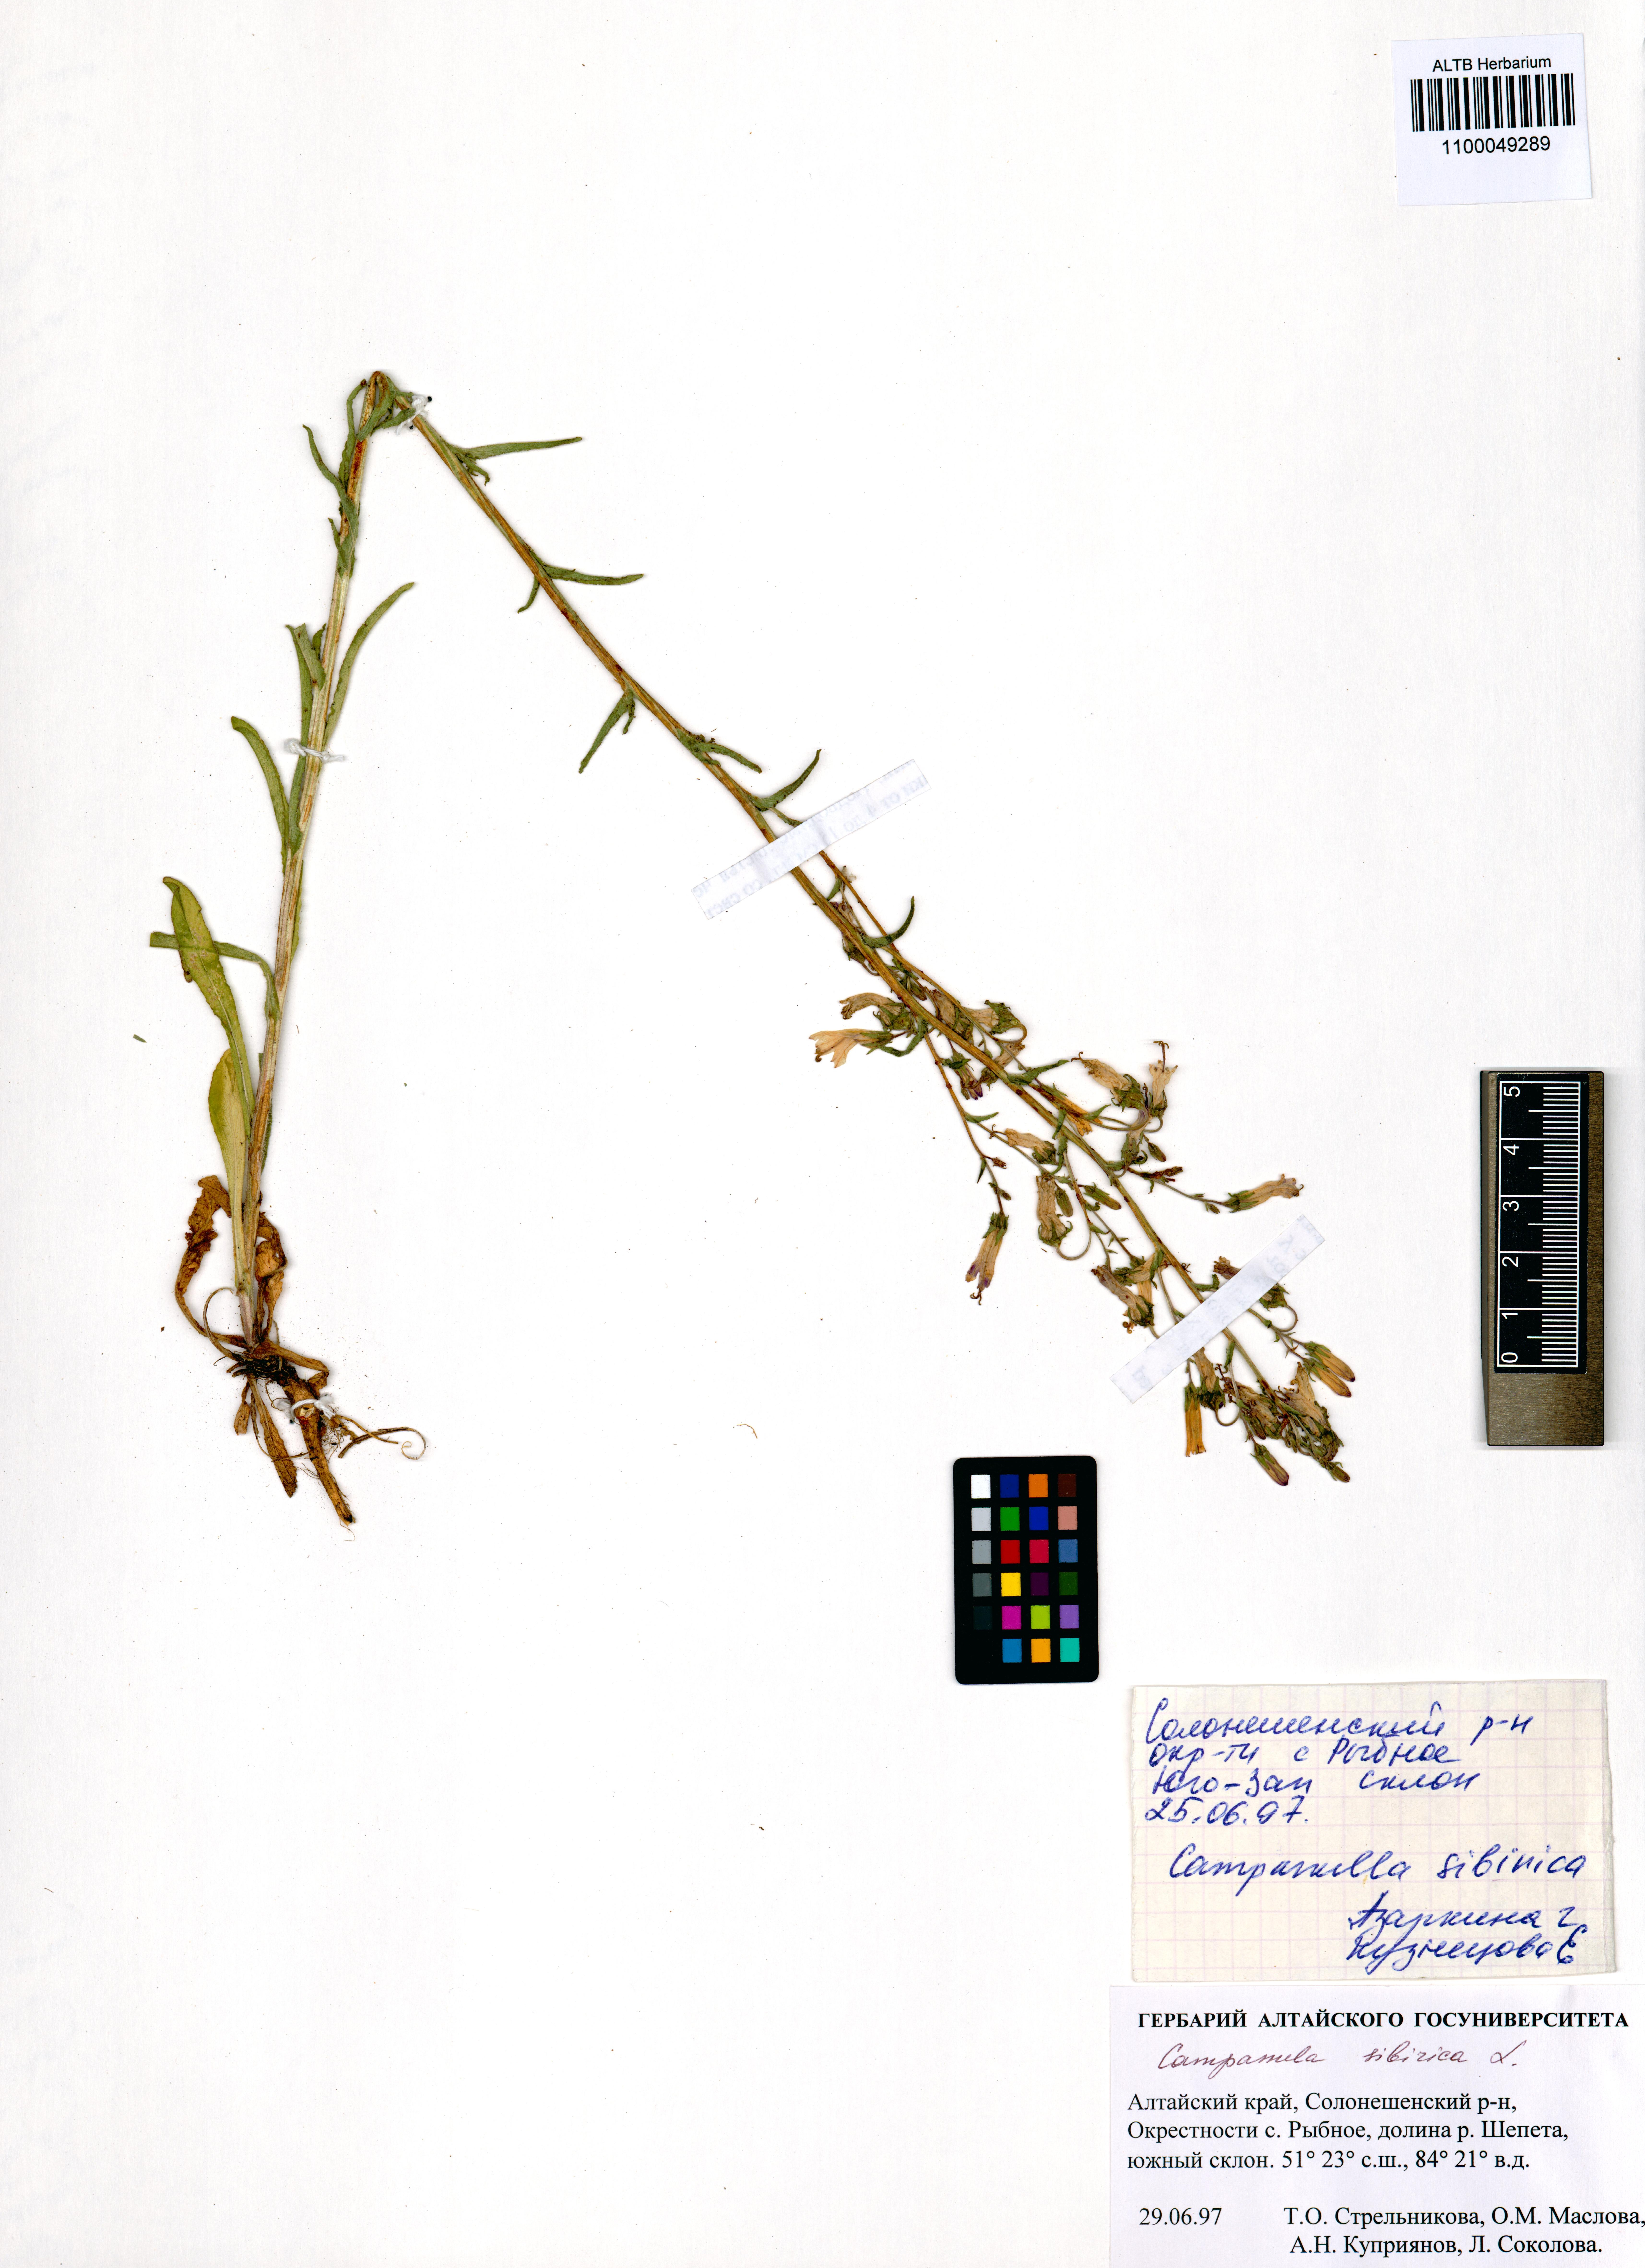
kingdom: Plantae
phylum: Tracheophyta
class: Magnoliopsida
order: Asterales
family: Campanulaceae
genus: Campanula
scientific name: Campanula sibirica
